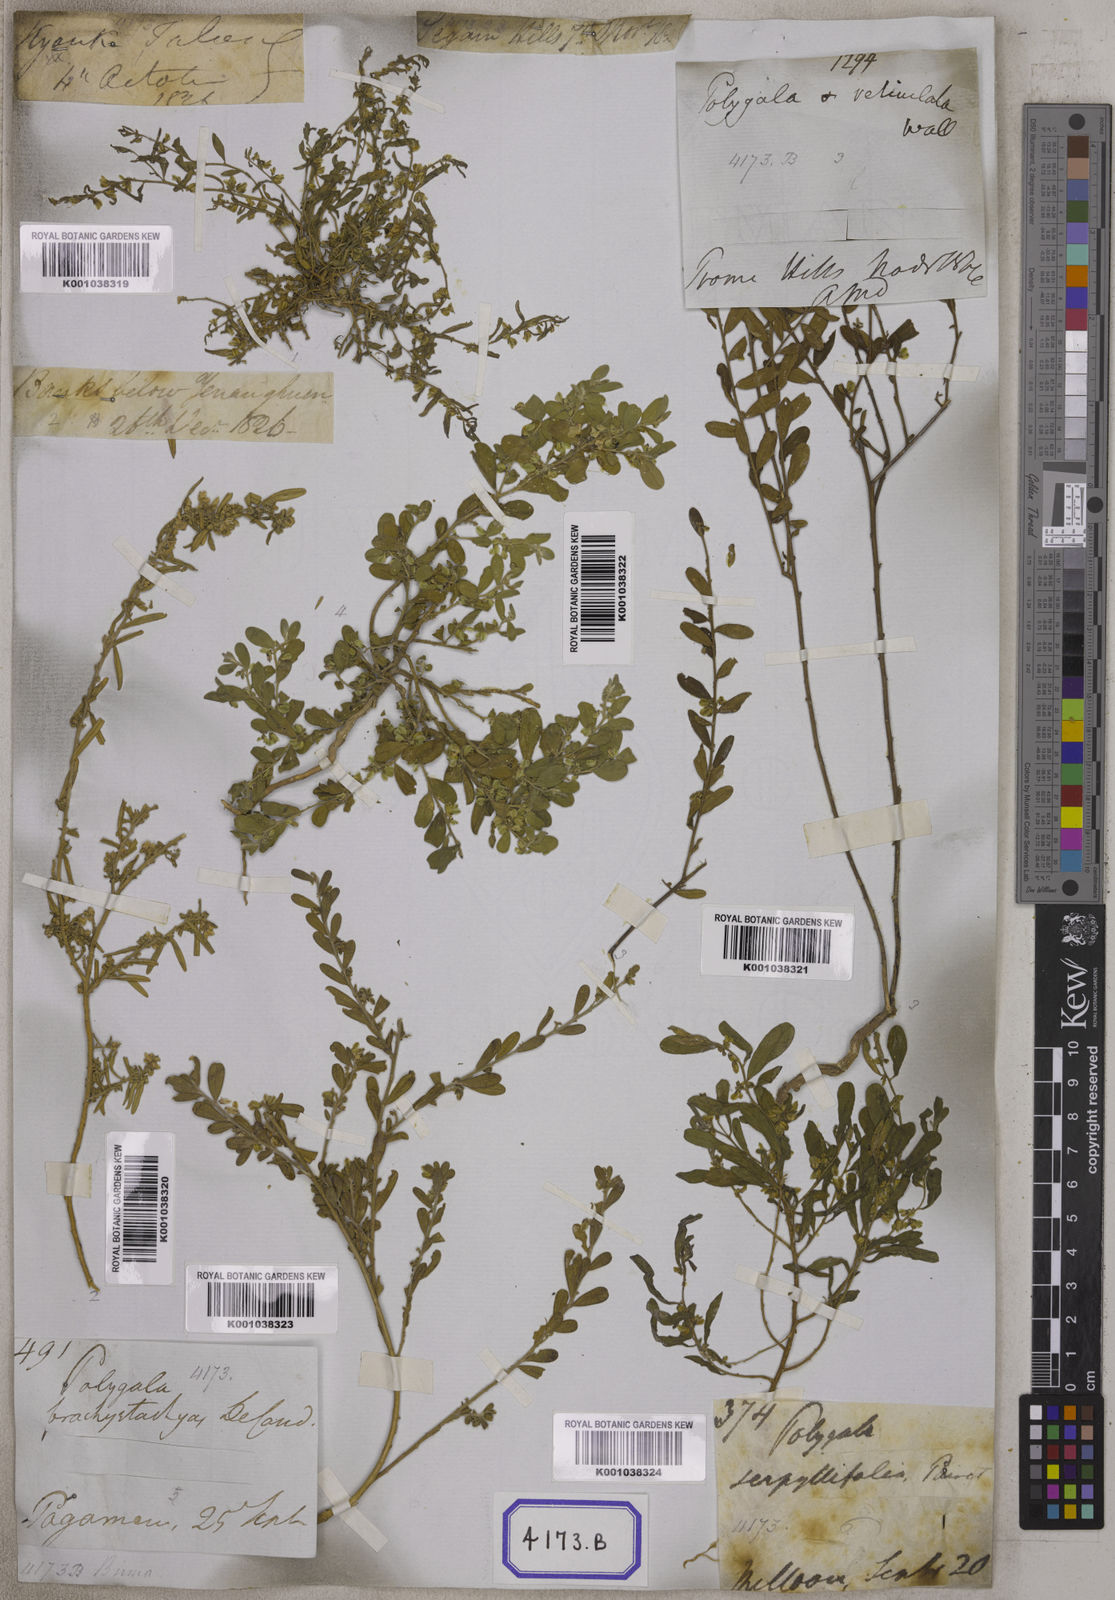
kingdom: Plantae
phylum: Tracheophyta
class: Magnoliopsida
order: Fabales
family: Polygalaceae
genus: Polygala
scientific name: Polygala
